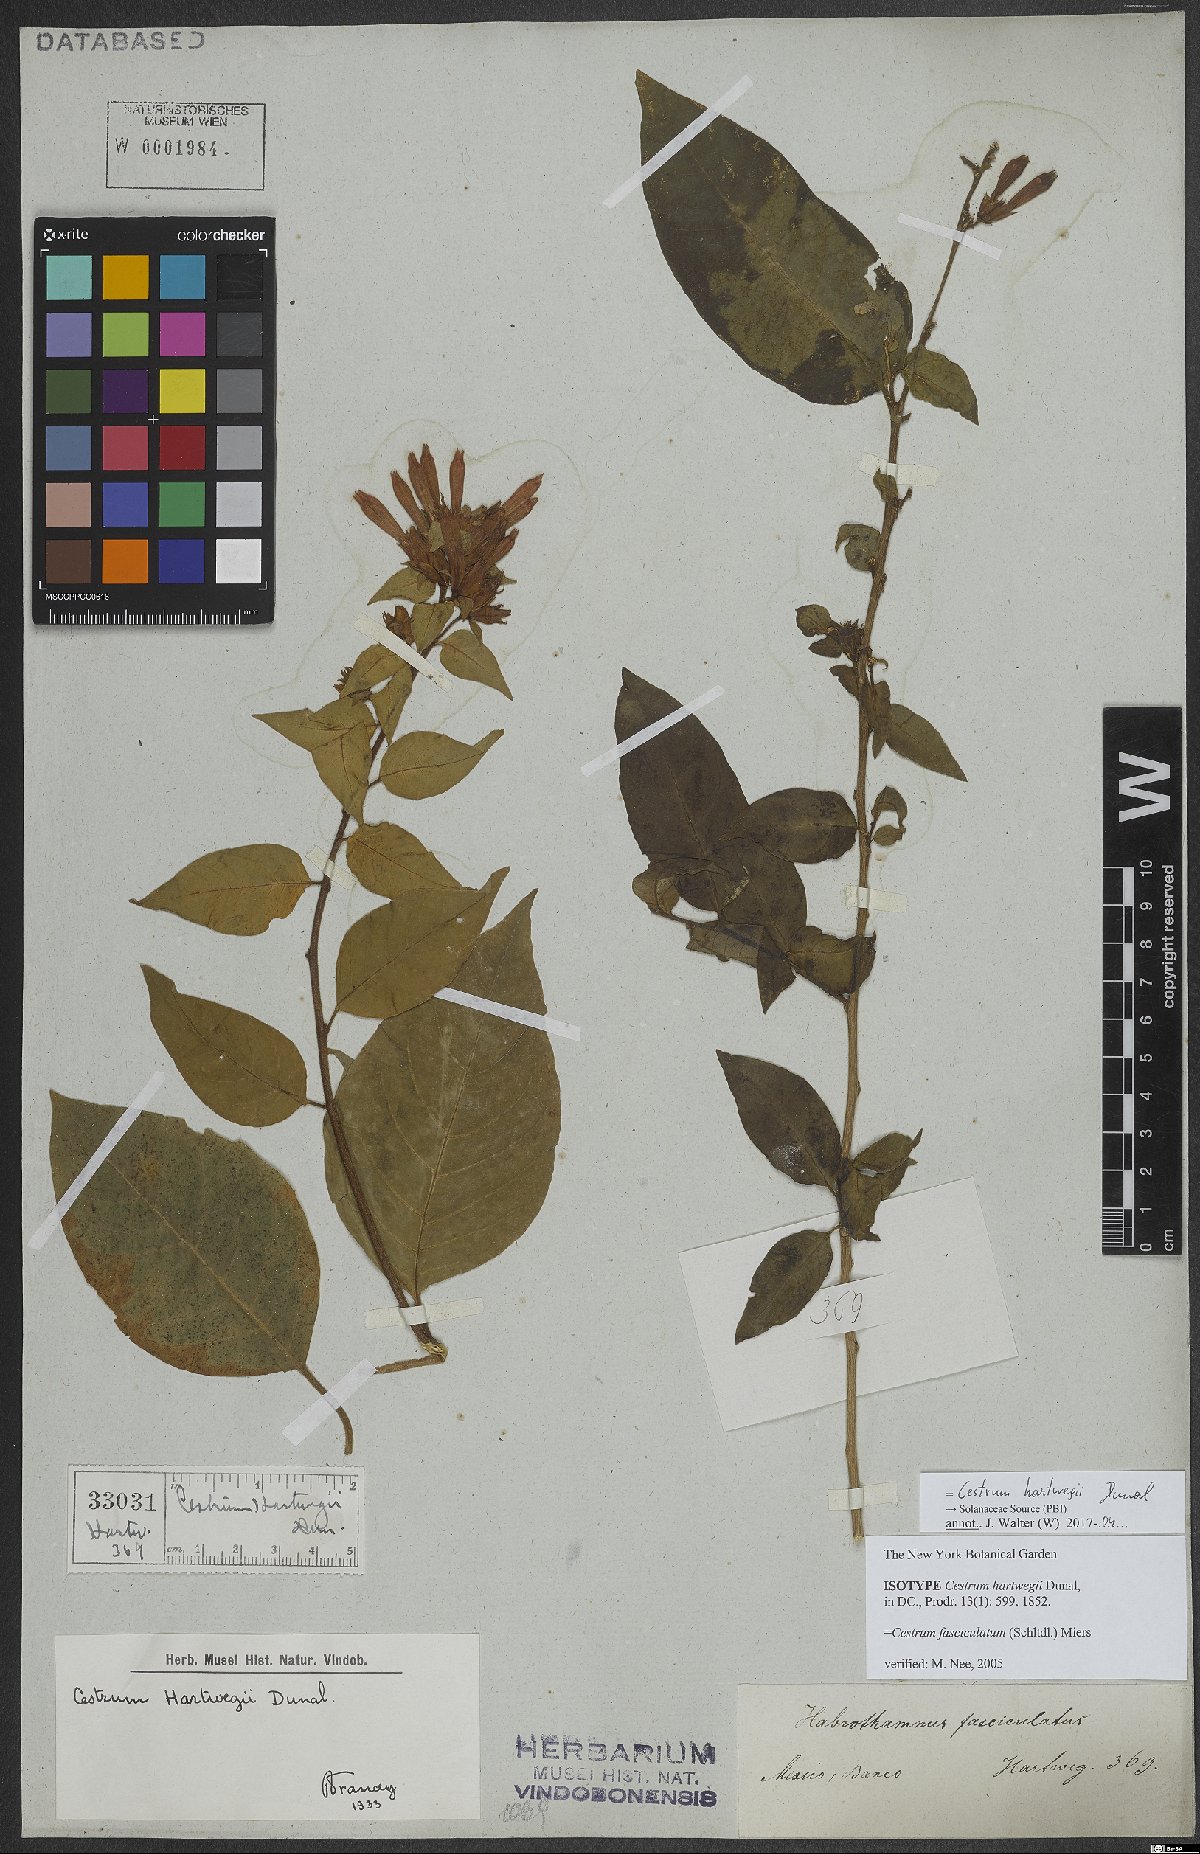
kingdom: Plantae
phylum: Tracheophyta
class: Magnoliopsida
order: Solanales
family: Solanaceae
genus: Cestrum
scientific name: Cestrum hartwegii
